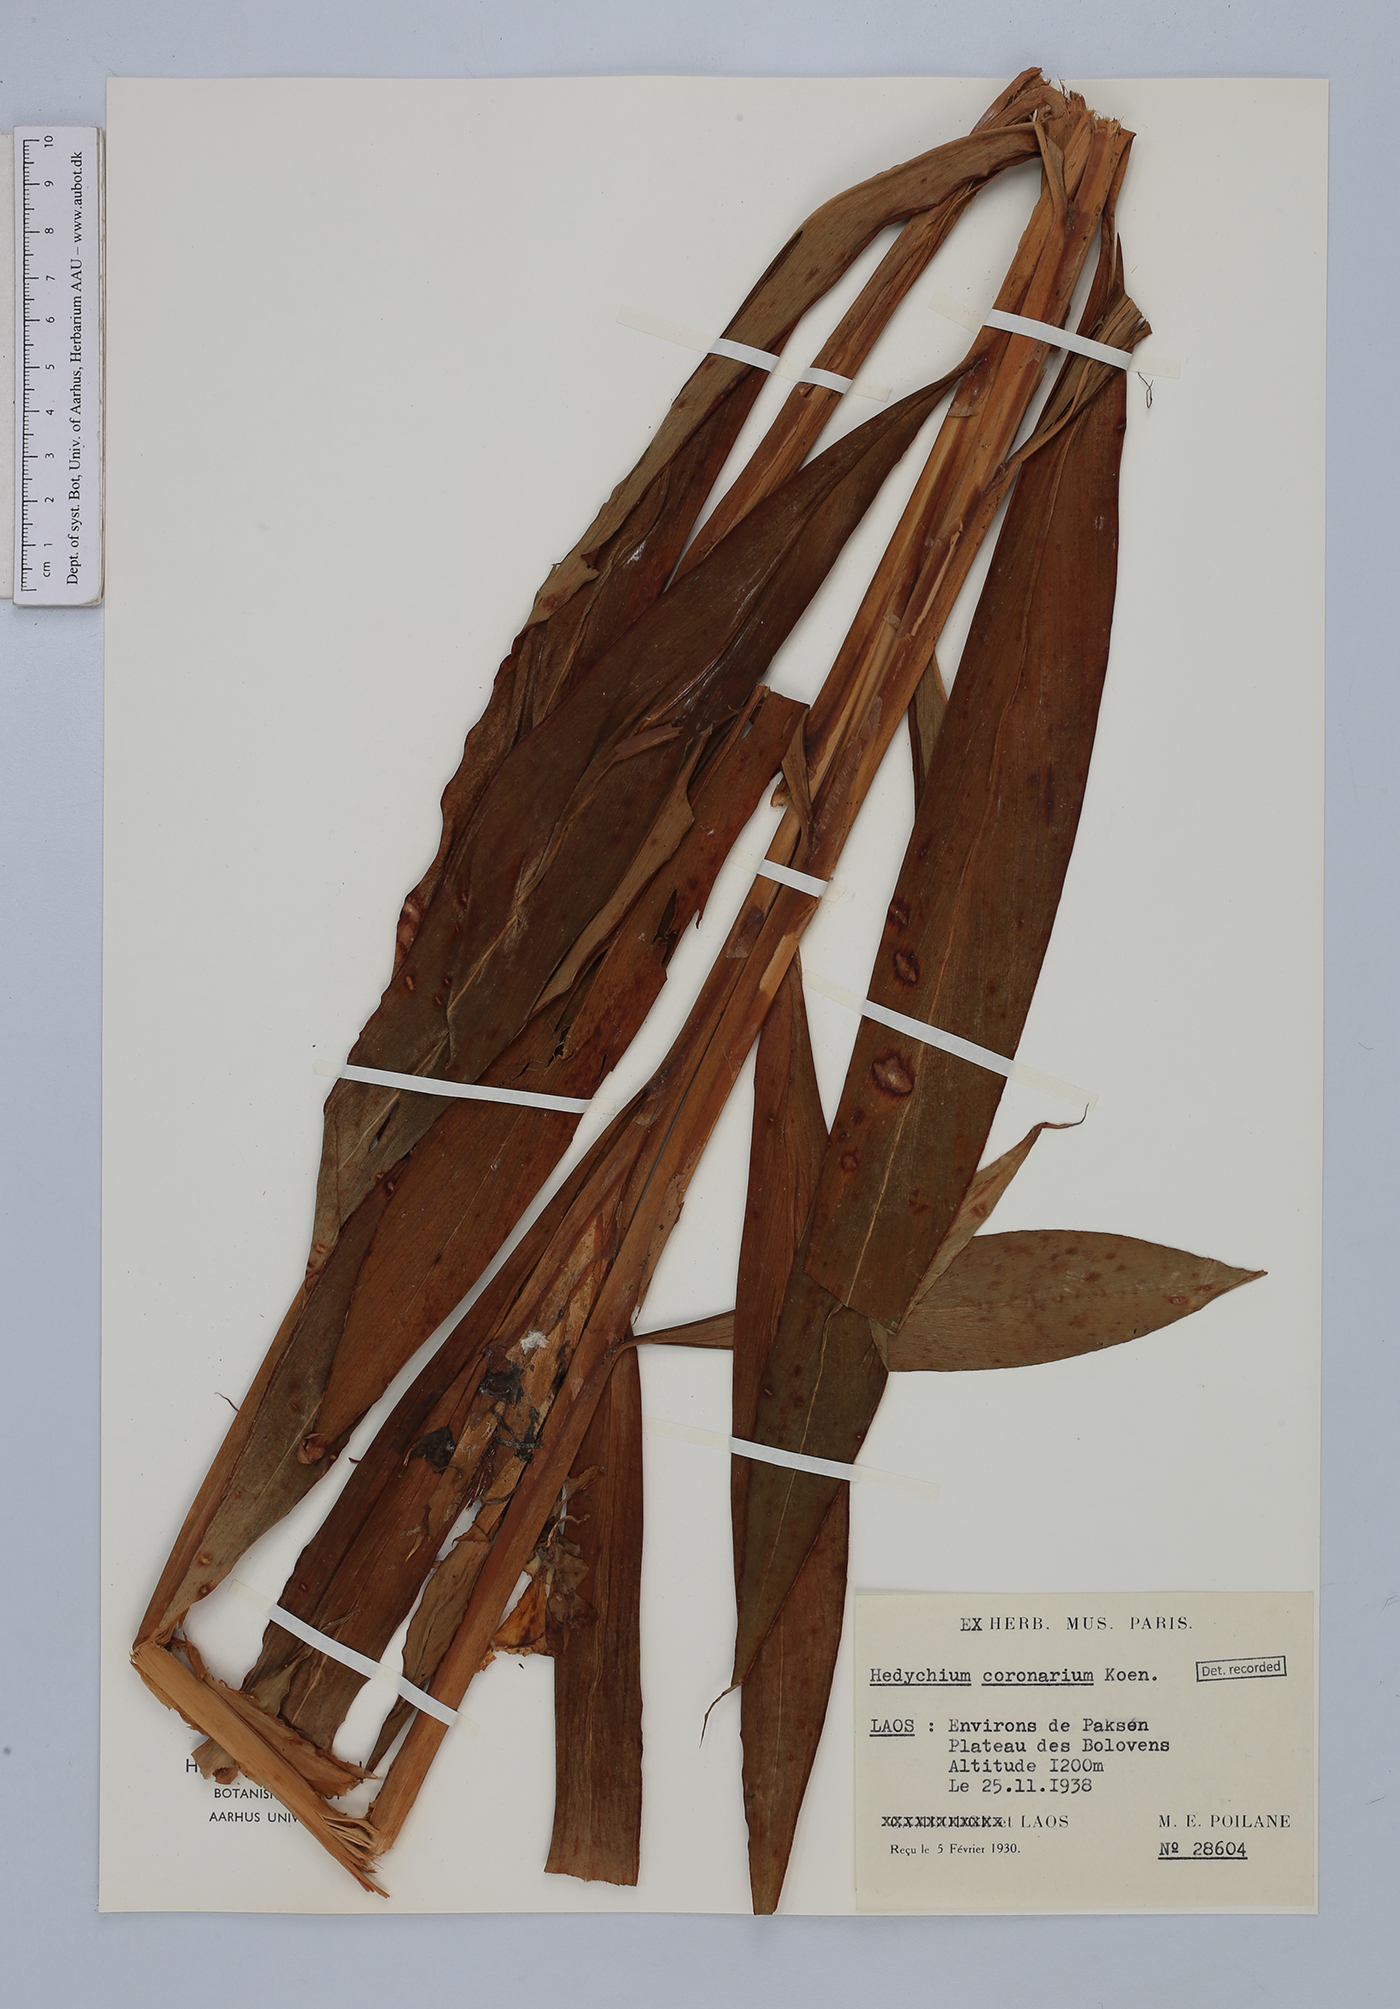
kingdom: Plantae
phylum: Tracheophyta
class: Liliopsida
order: Zingiberales
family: Zingiberaceae
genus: Hedychium
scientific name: Hedychium coronarium
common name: White garland-lily
